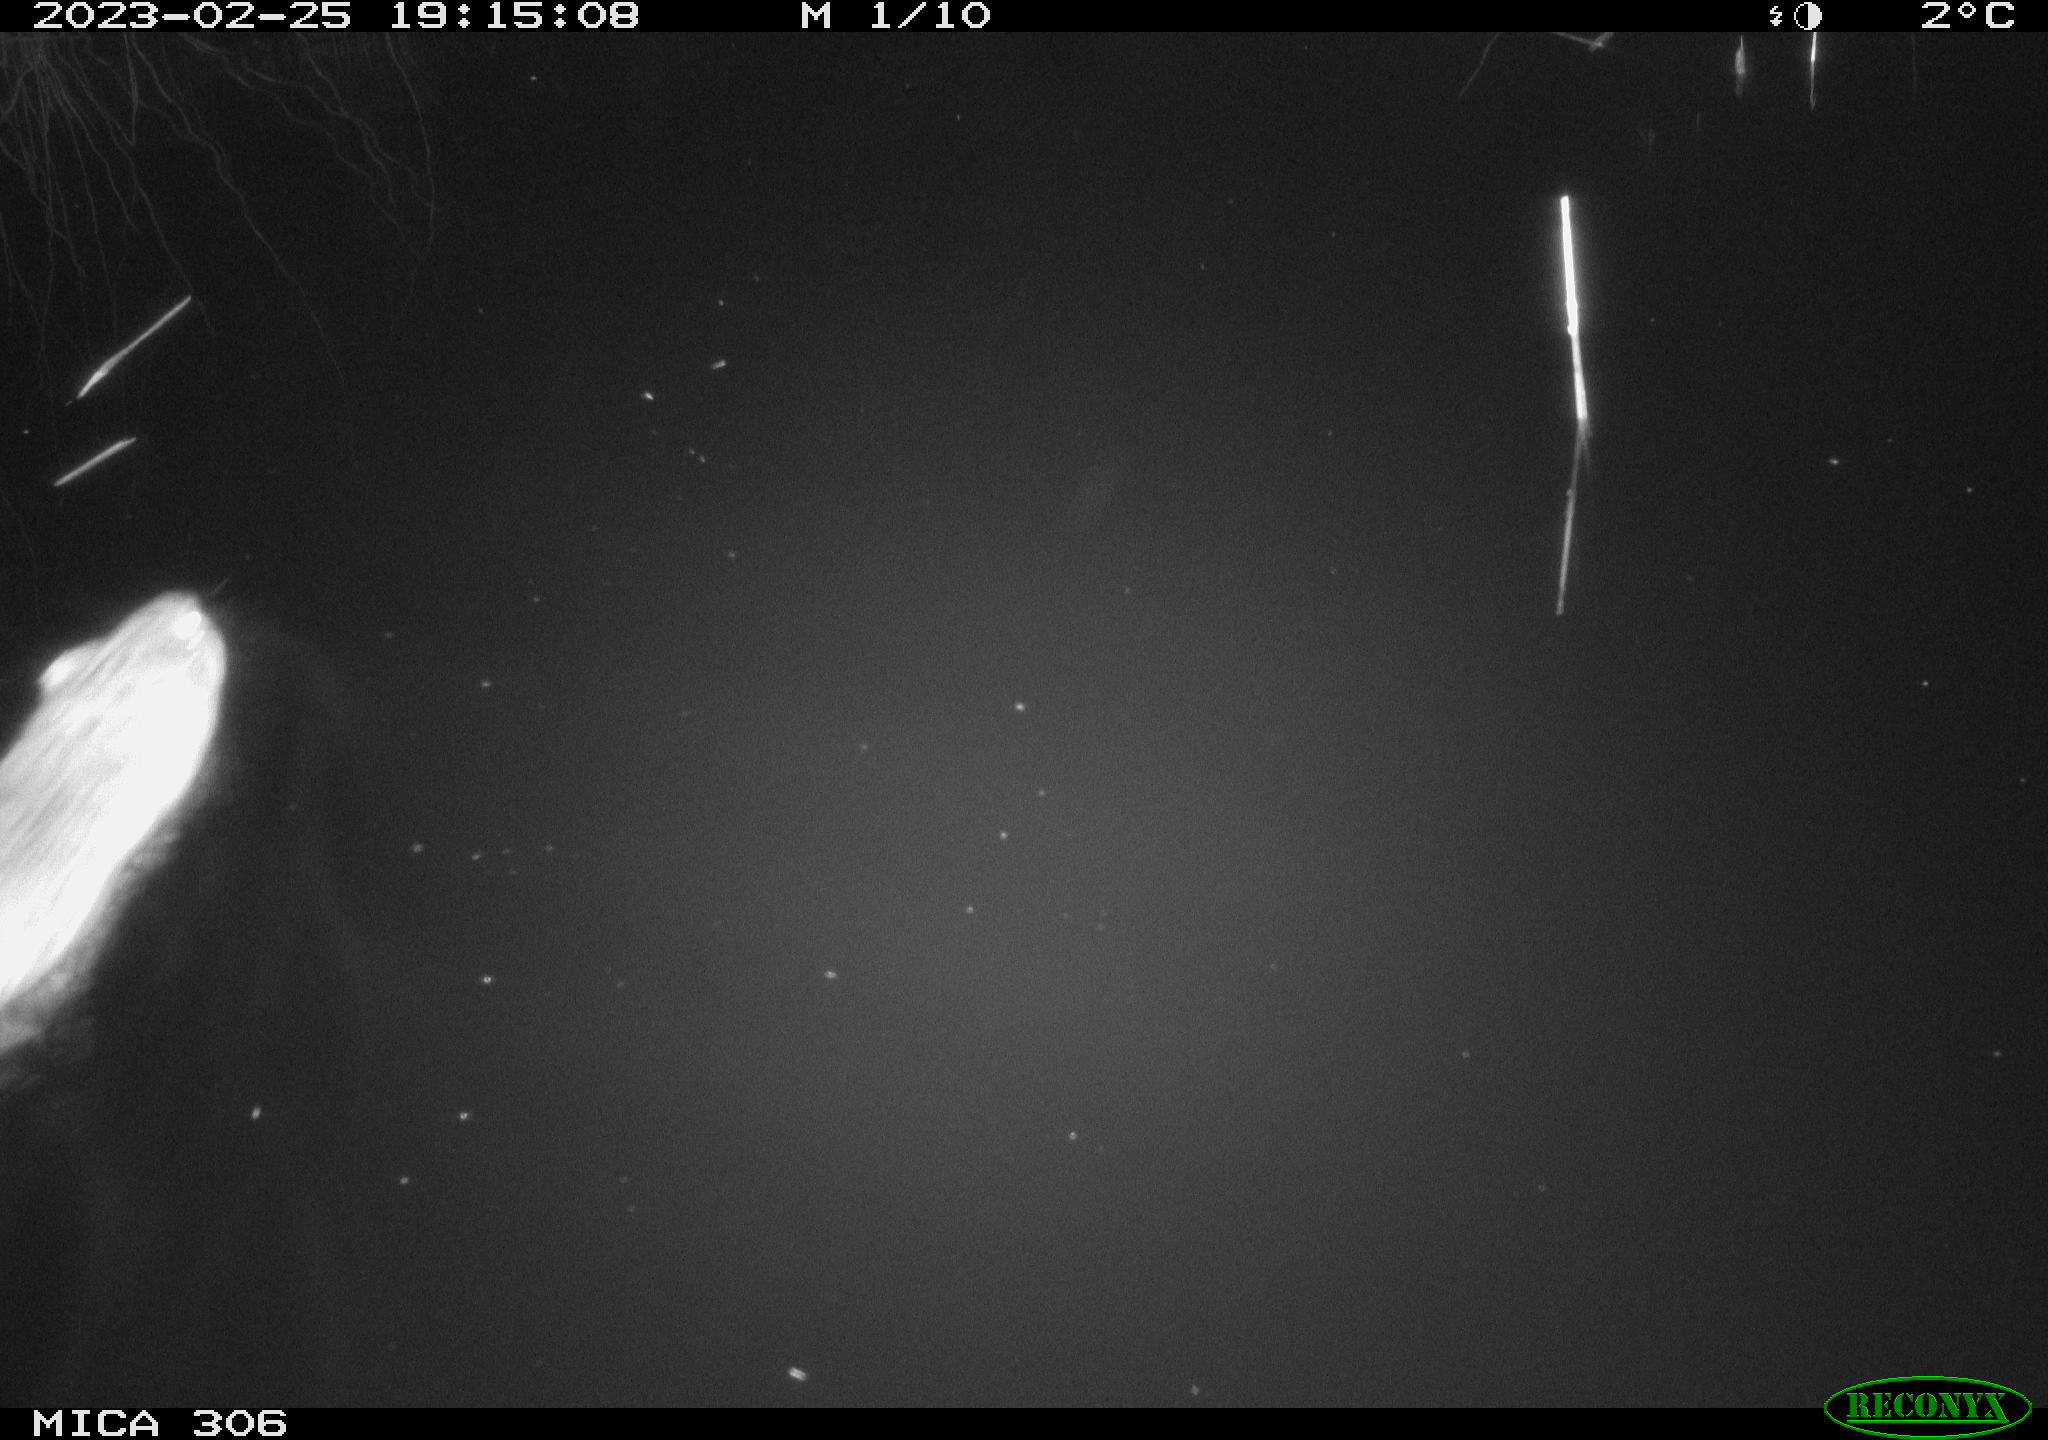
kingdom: Animalia
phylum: Chordata
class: Mammalia
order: Rodentia
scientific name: Rodentia
